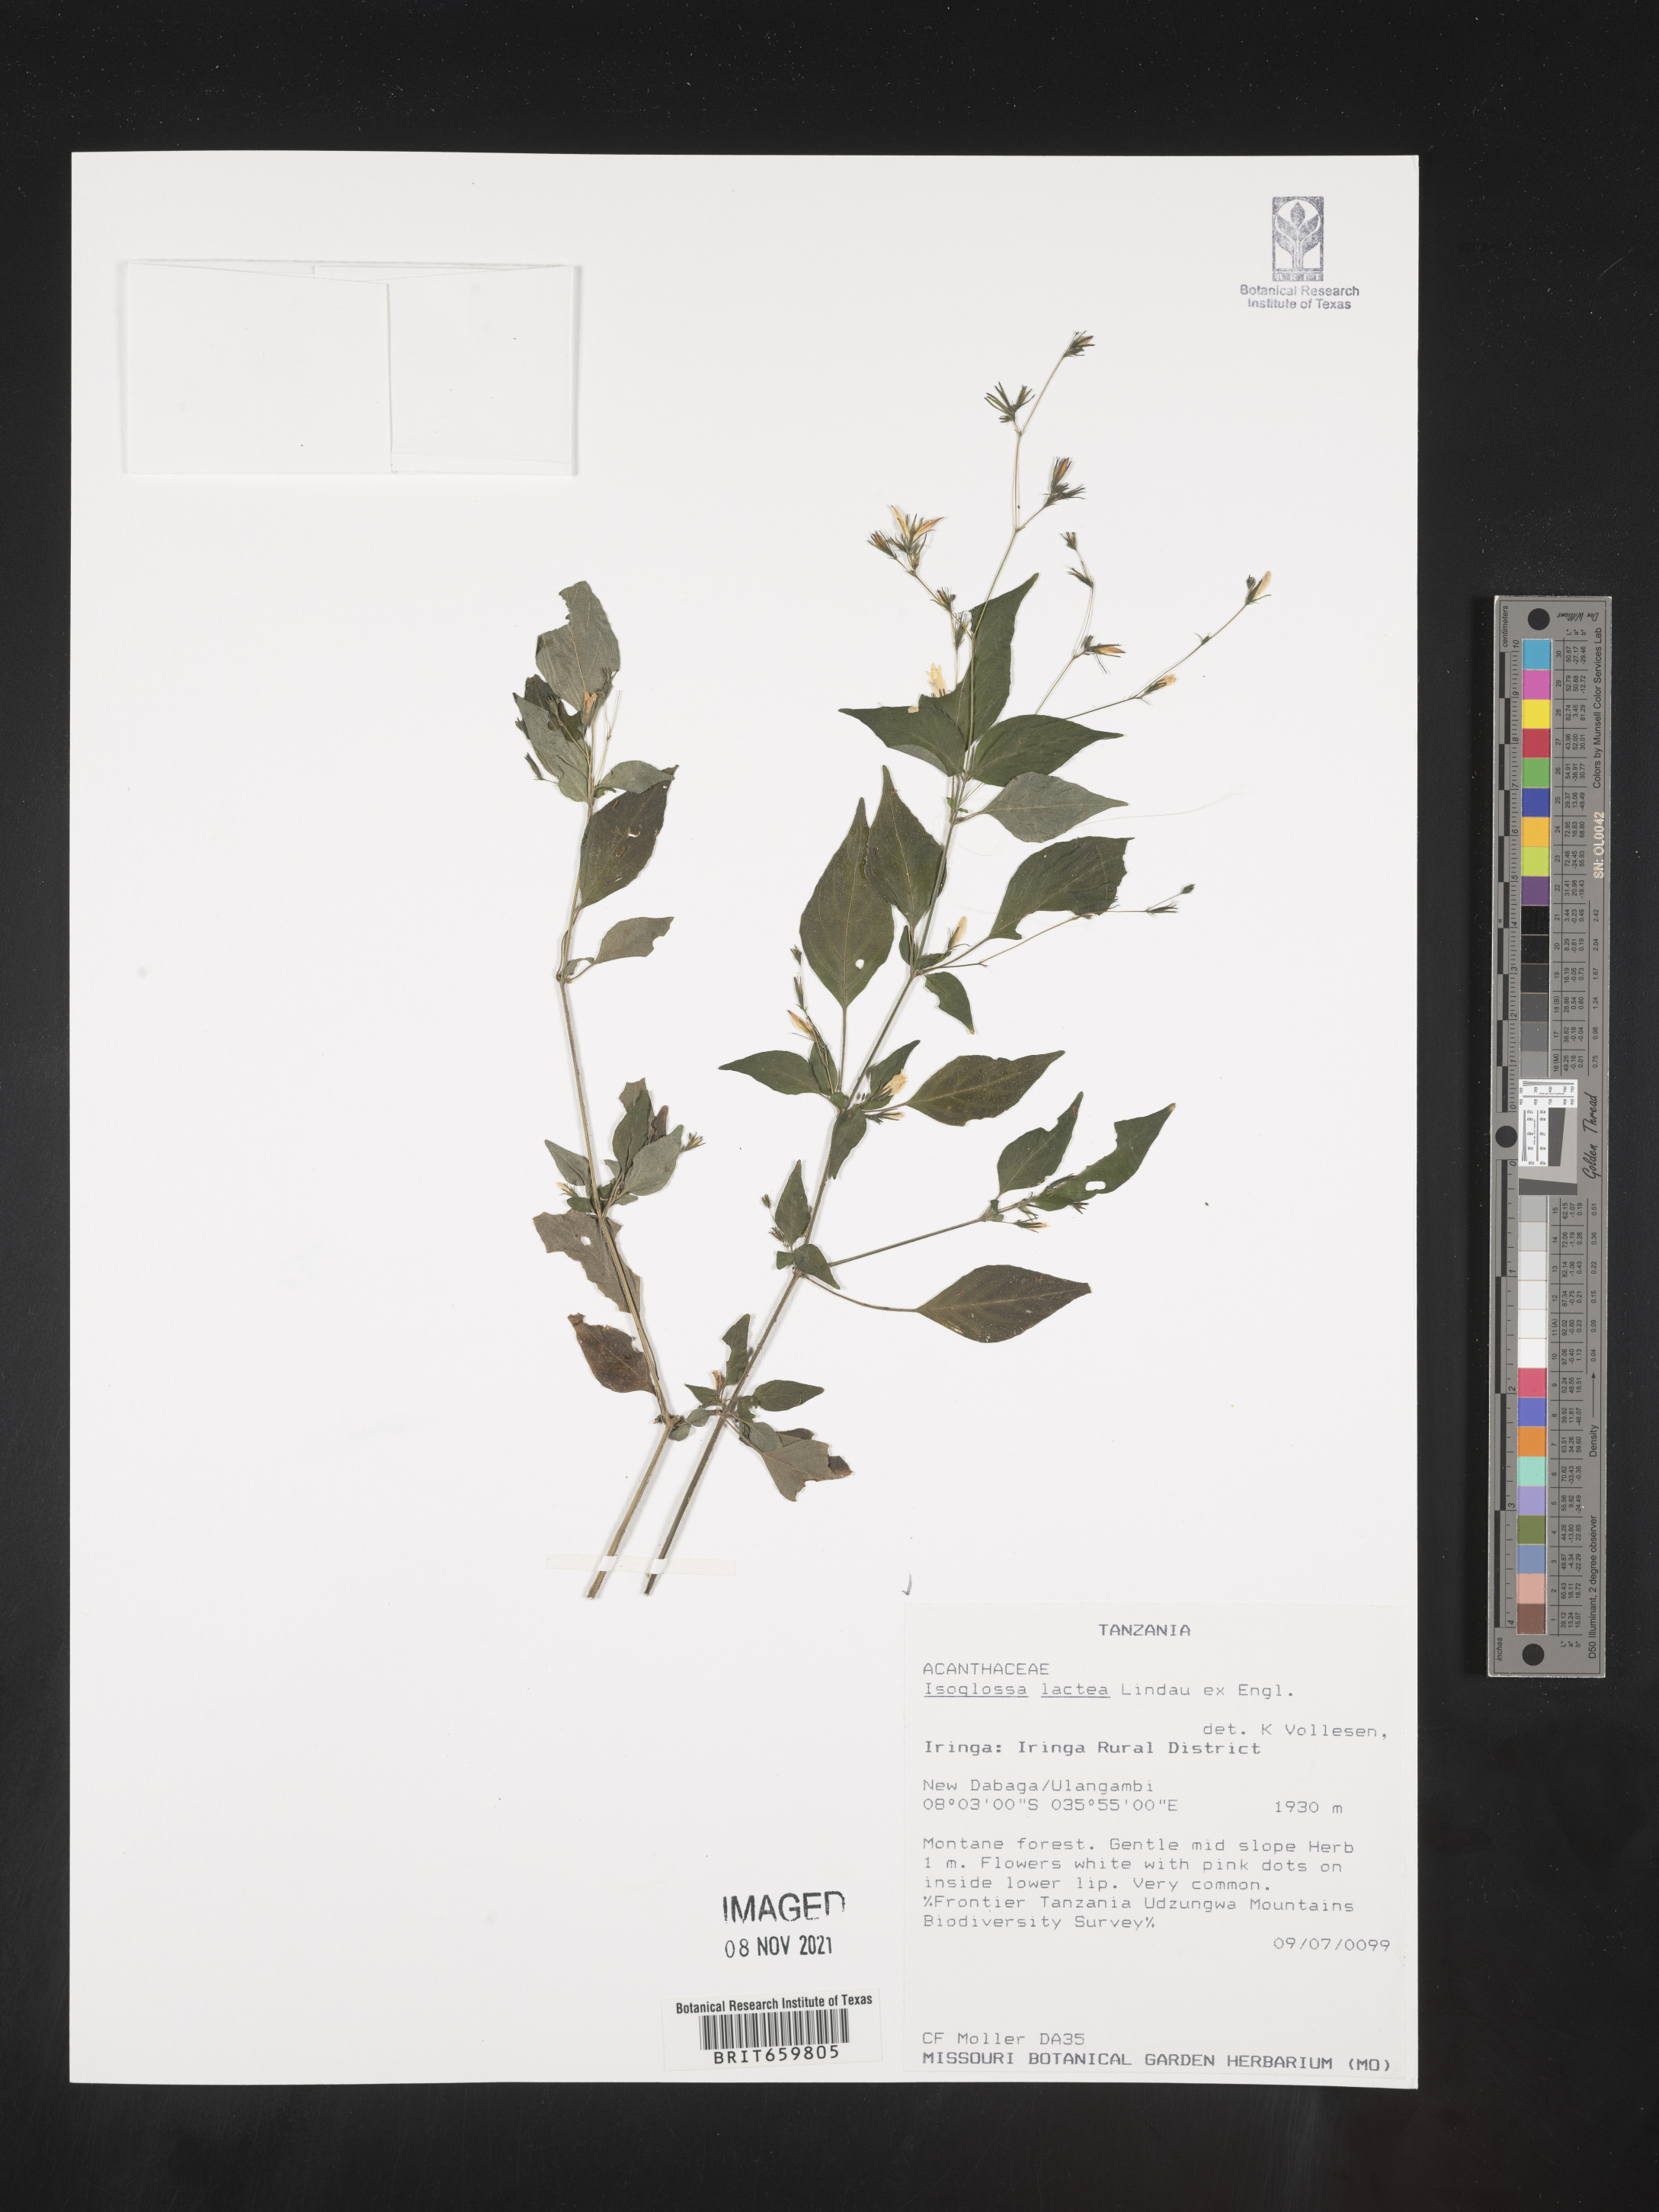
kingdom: Plantae
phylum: Tracheophyta
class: Magnoliopsida
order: Lamiales
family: Acanthaceae
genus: Isoglossa
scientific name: Isoglossa lactea
